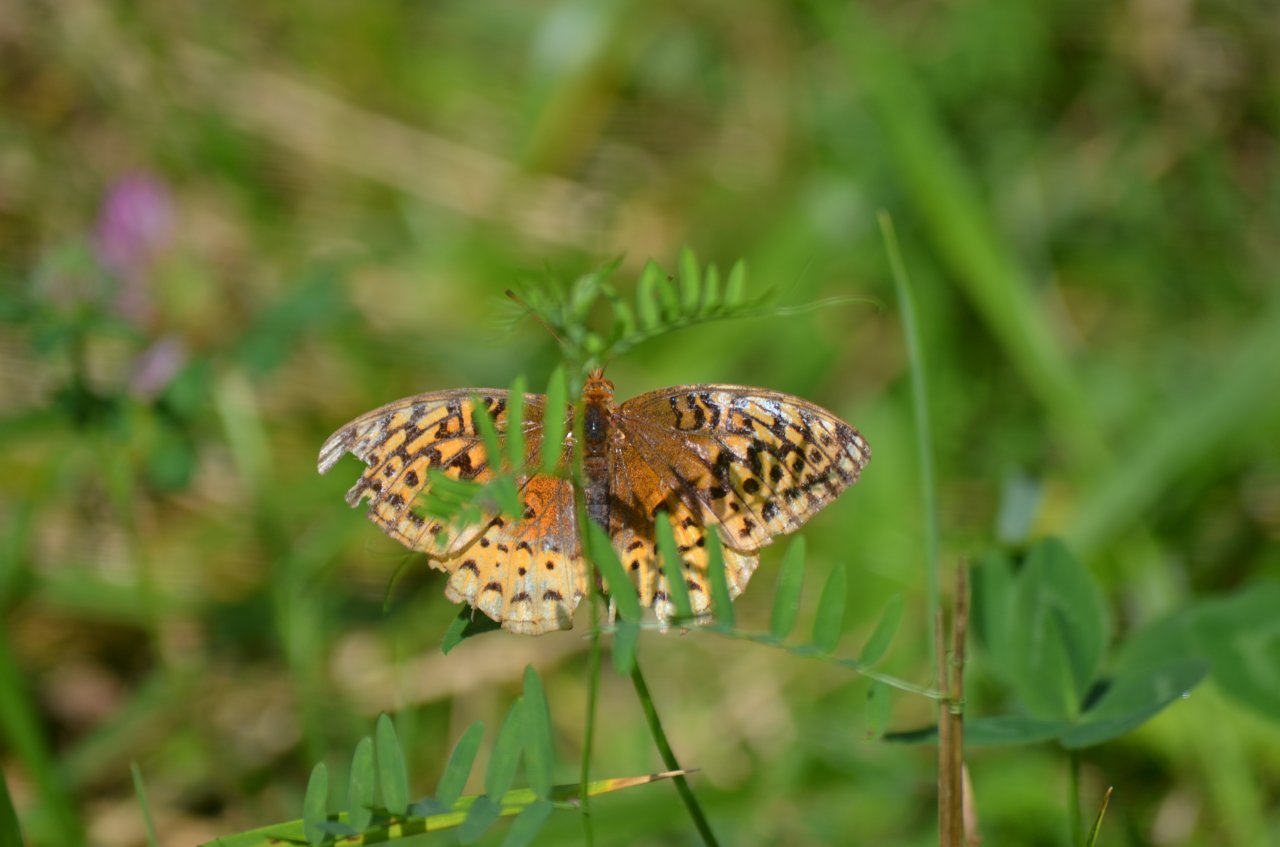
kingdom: Animalia
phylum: Arthropoda
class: Insecta
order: Lepidoptera
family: Nymphalidae
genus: Speyeria
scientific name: Speyeria cybele
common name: Great Spangled Fritillary
